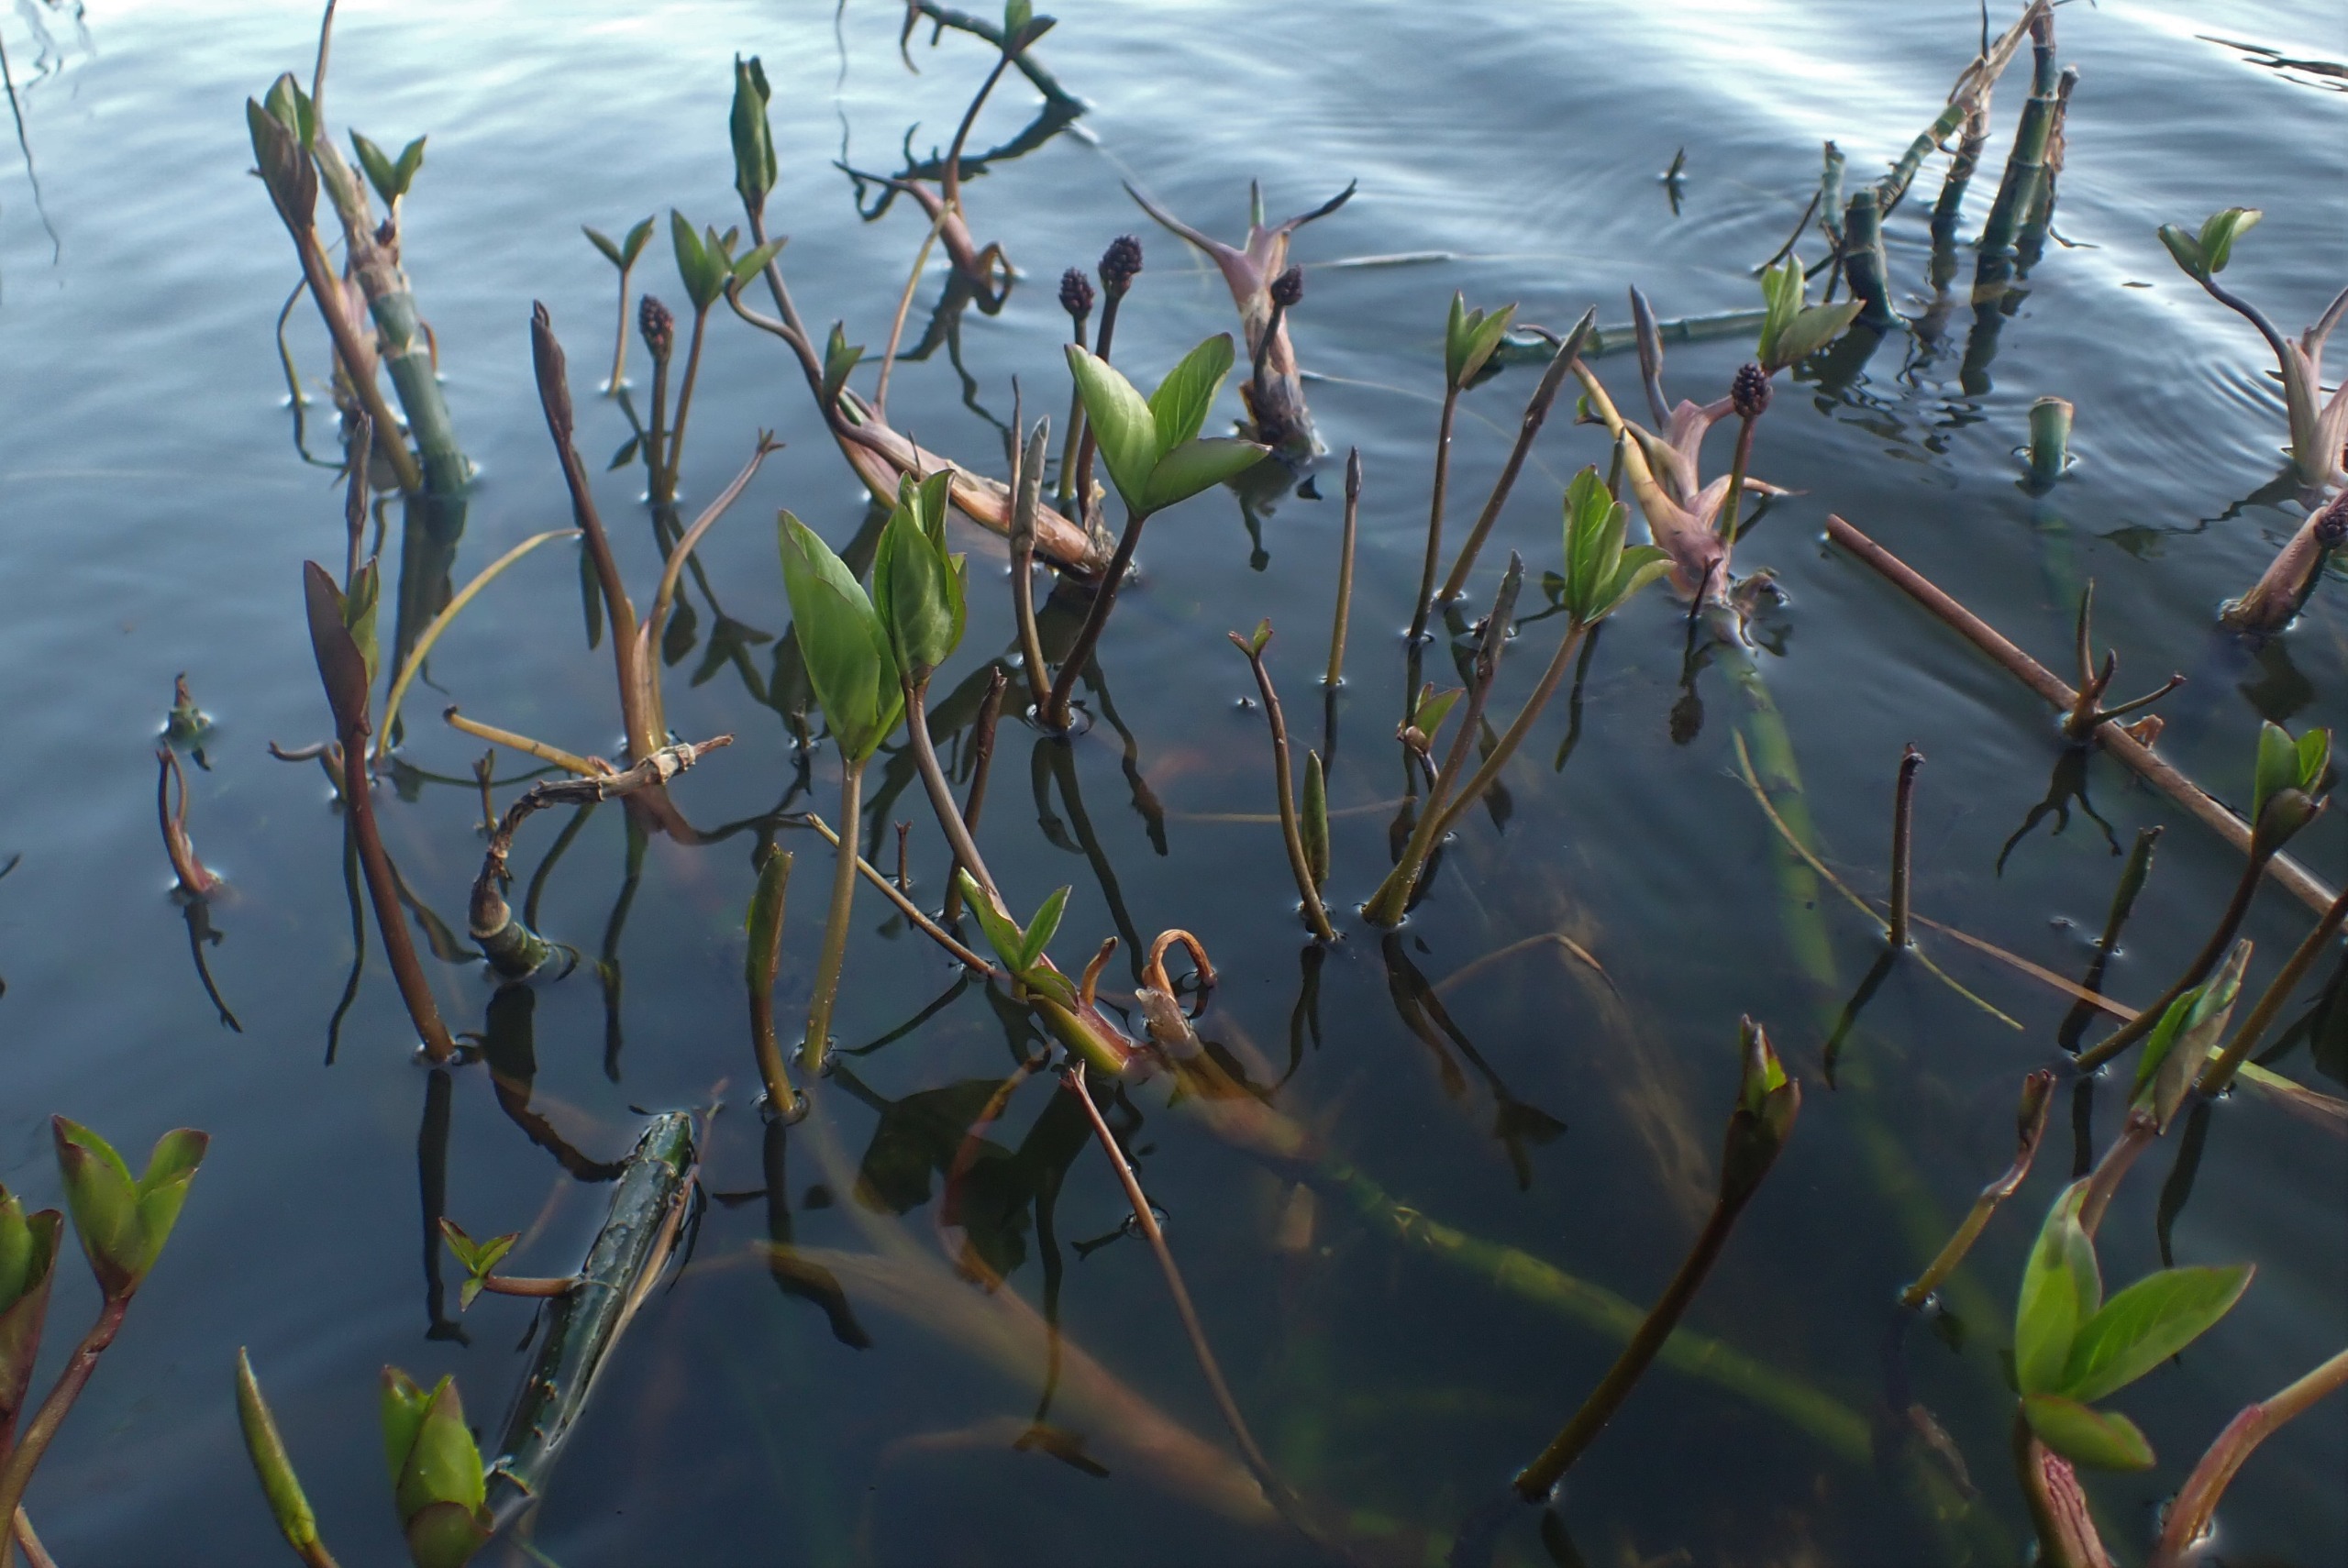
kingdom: Plantae
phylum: Tracheophyta
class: Magnoliopsida
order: Asterales
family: Menyanthaceae
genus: Menyanthes
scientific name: Menyanthes trifoliata
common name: Bukkeblad
